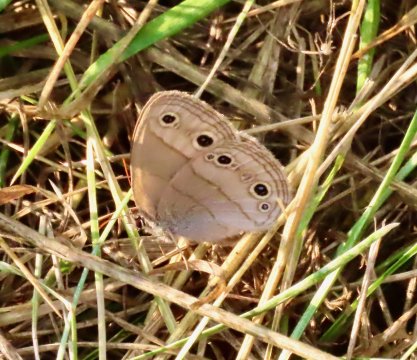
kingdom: Animalia
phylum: Arthropoda
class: Insecta
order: Lepidoptera
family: Nymphalidae
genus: Euptychia
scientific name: Euptychia cymela
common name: Little Wood Satyr
